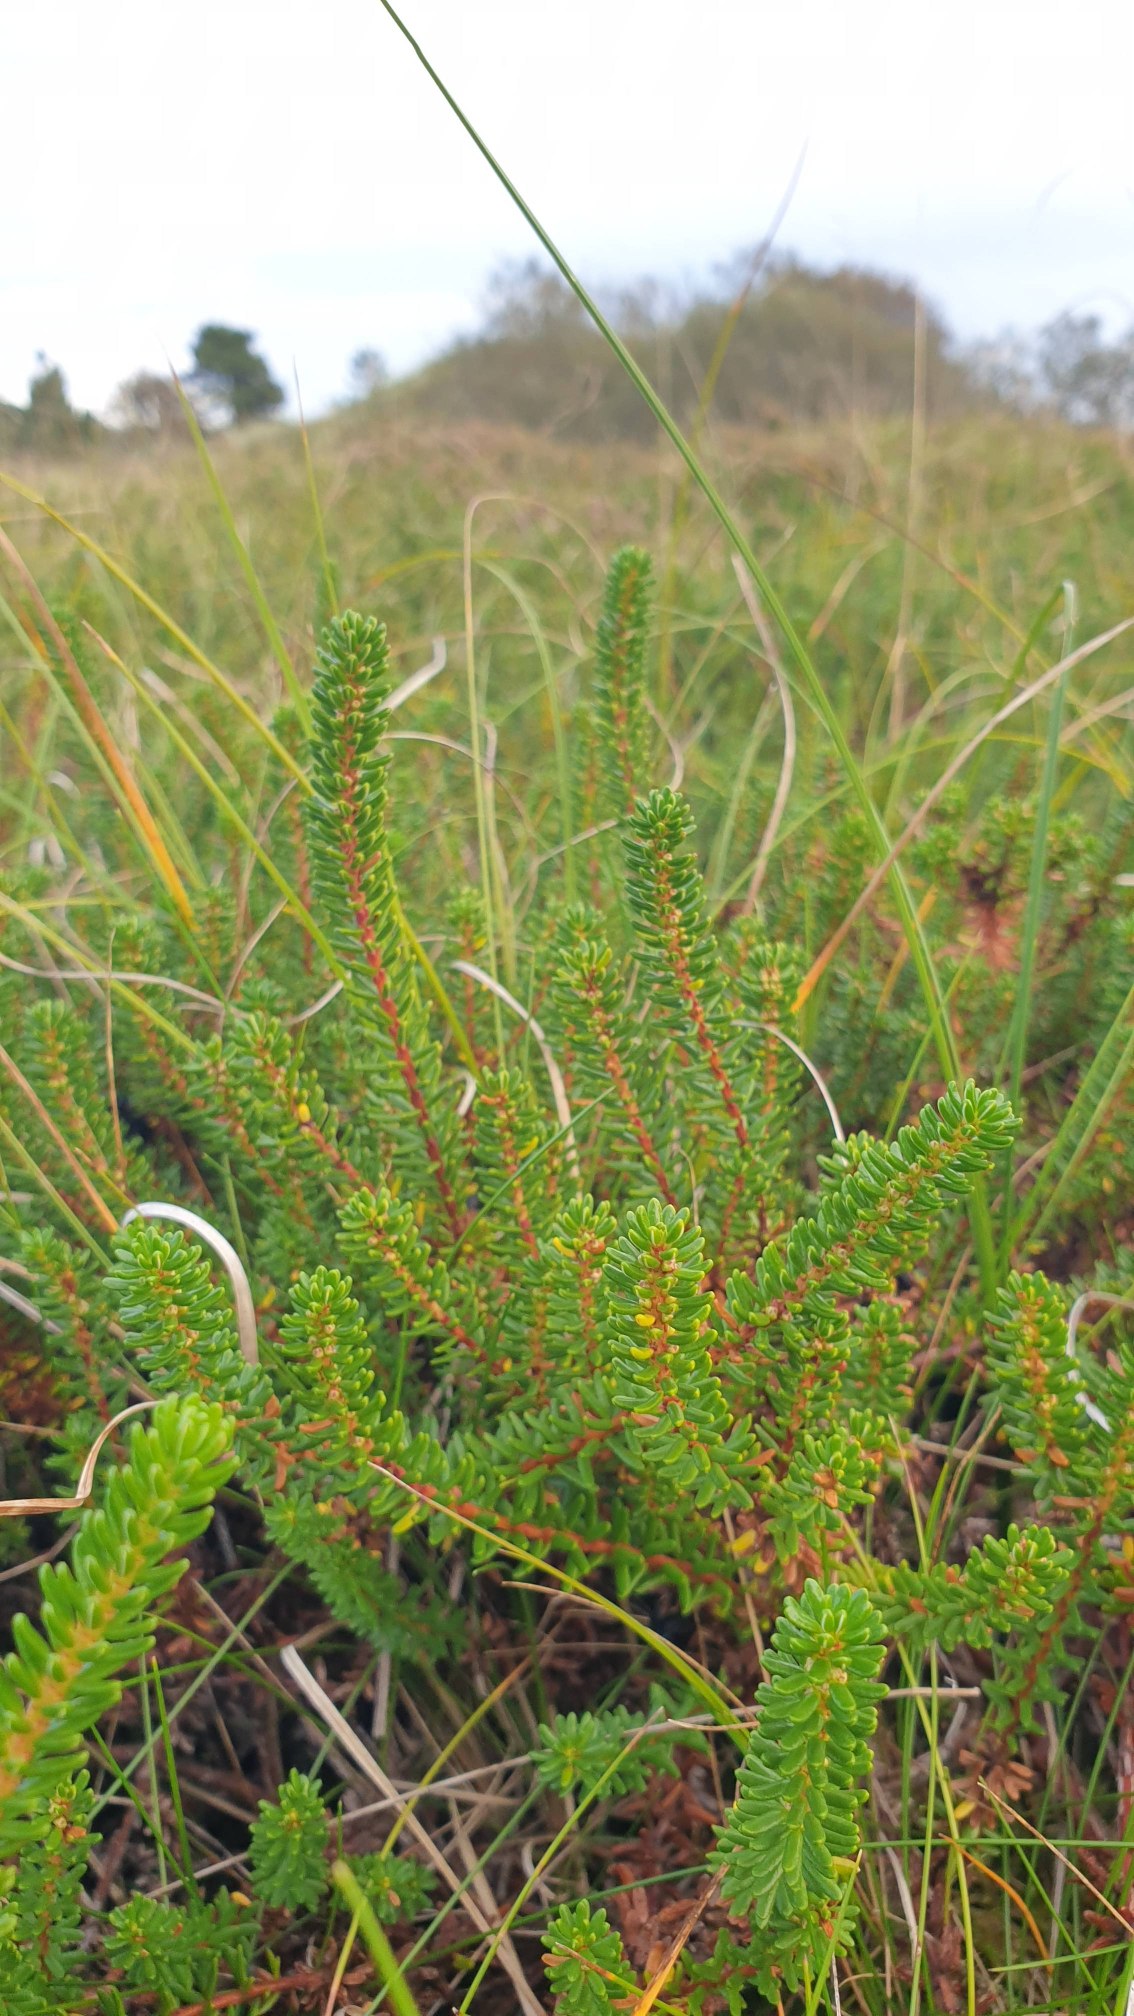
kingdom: Plantae
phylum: Tracheophyta
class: Magnoliopsida
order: Ericales
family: Ericaceae
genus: Empetrum
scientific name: Empetrum nigrum
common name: Revling
